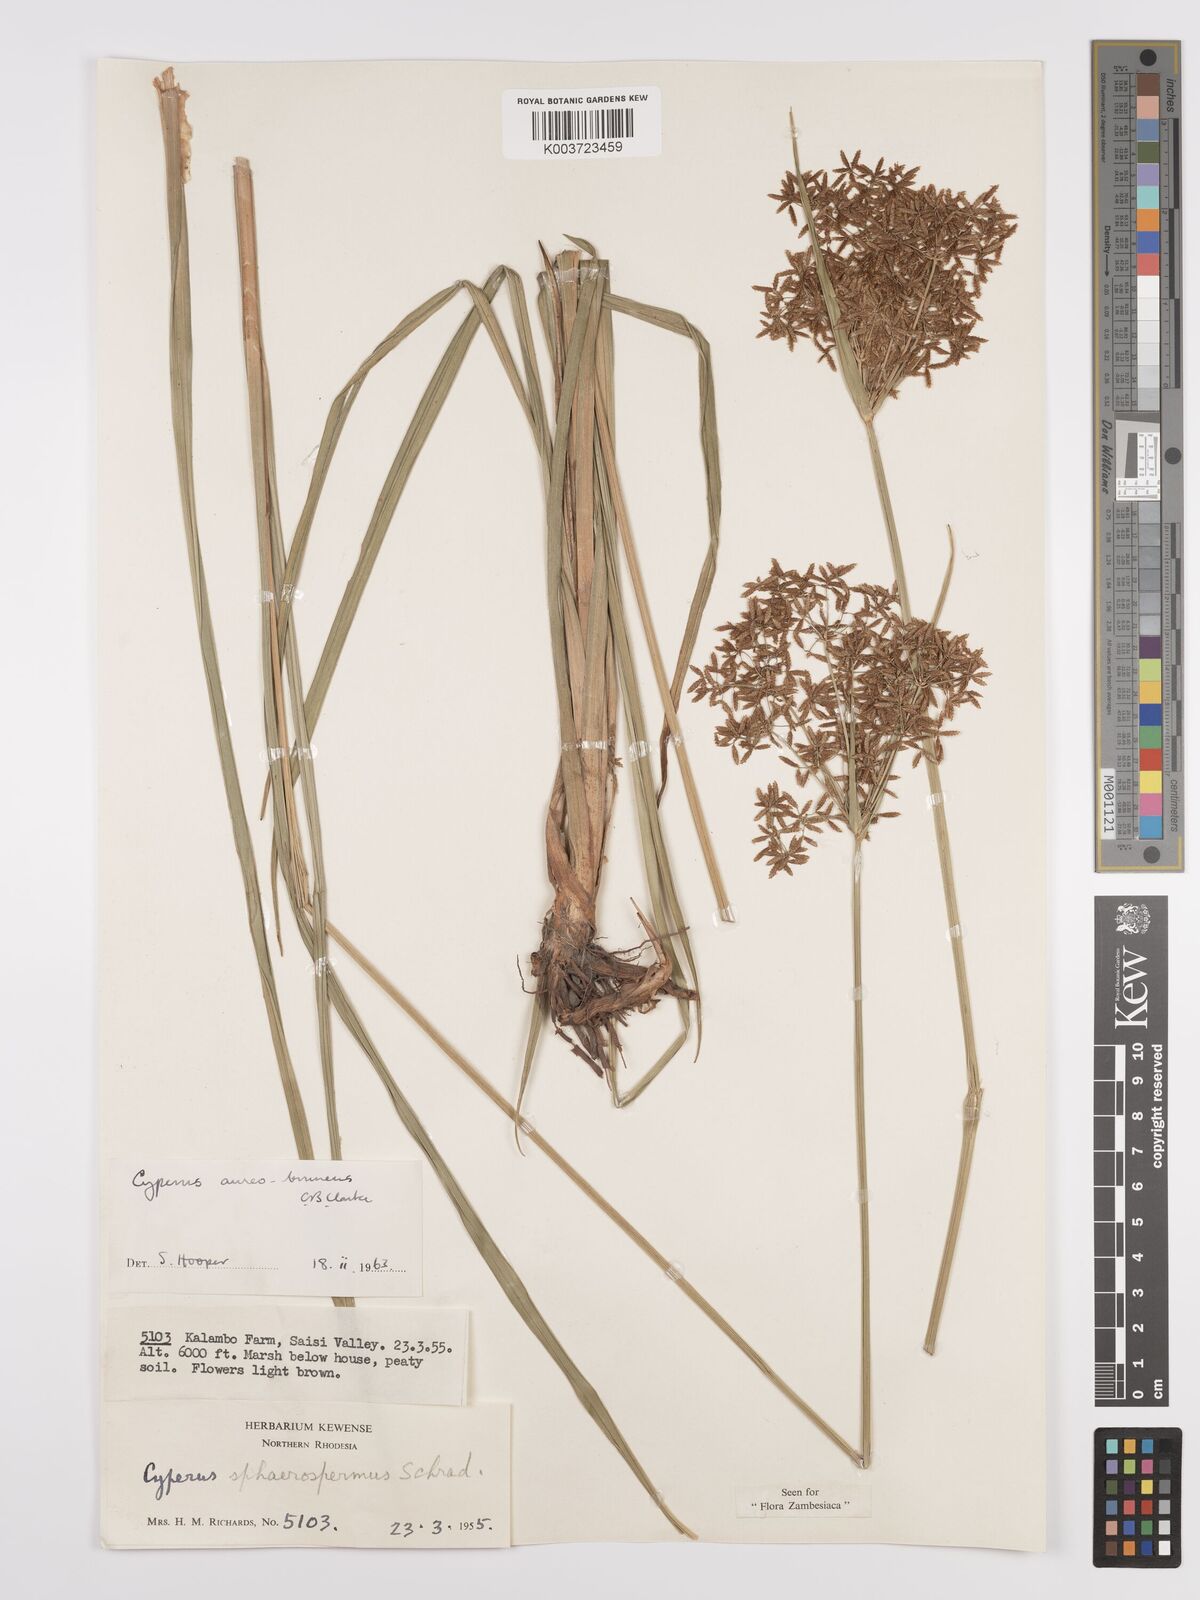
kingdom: Plantae
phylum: Tracheophyta
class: Liliopsida
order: Poales
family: Cyperaceae
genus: Cyperus
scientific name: Cyperus aureobrunneus
